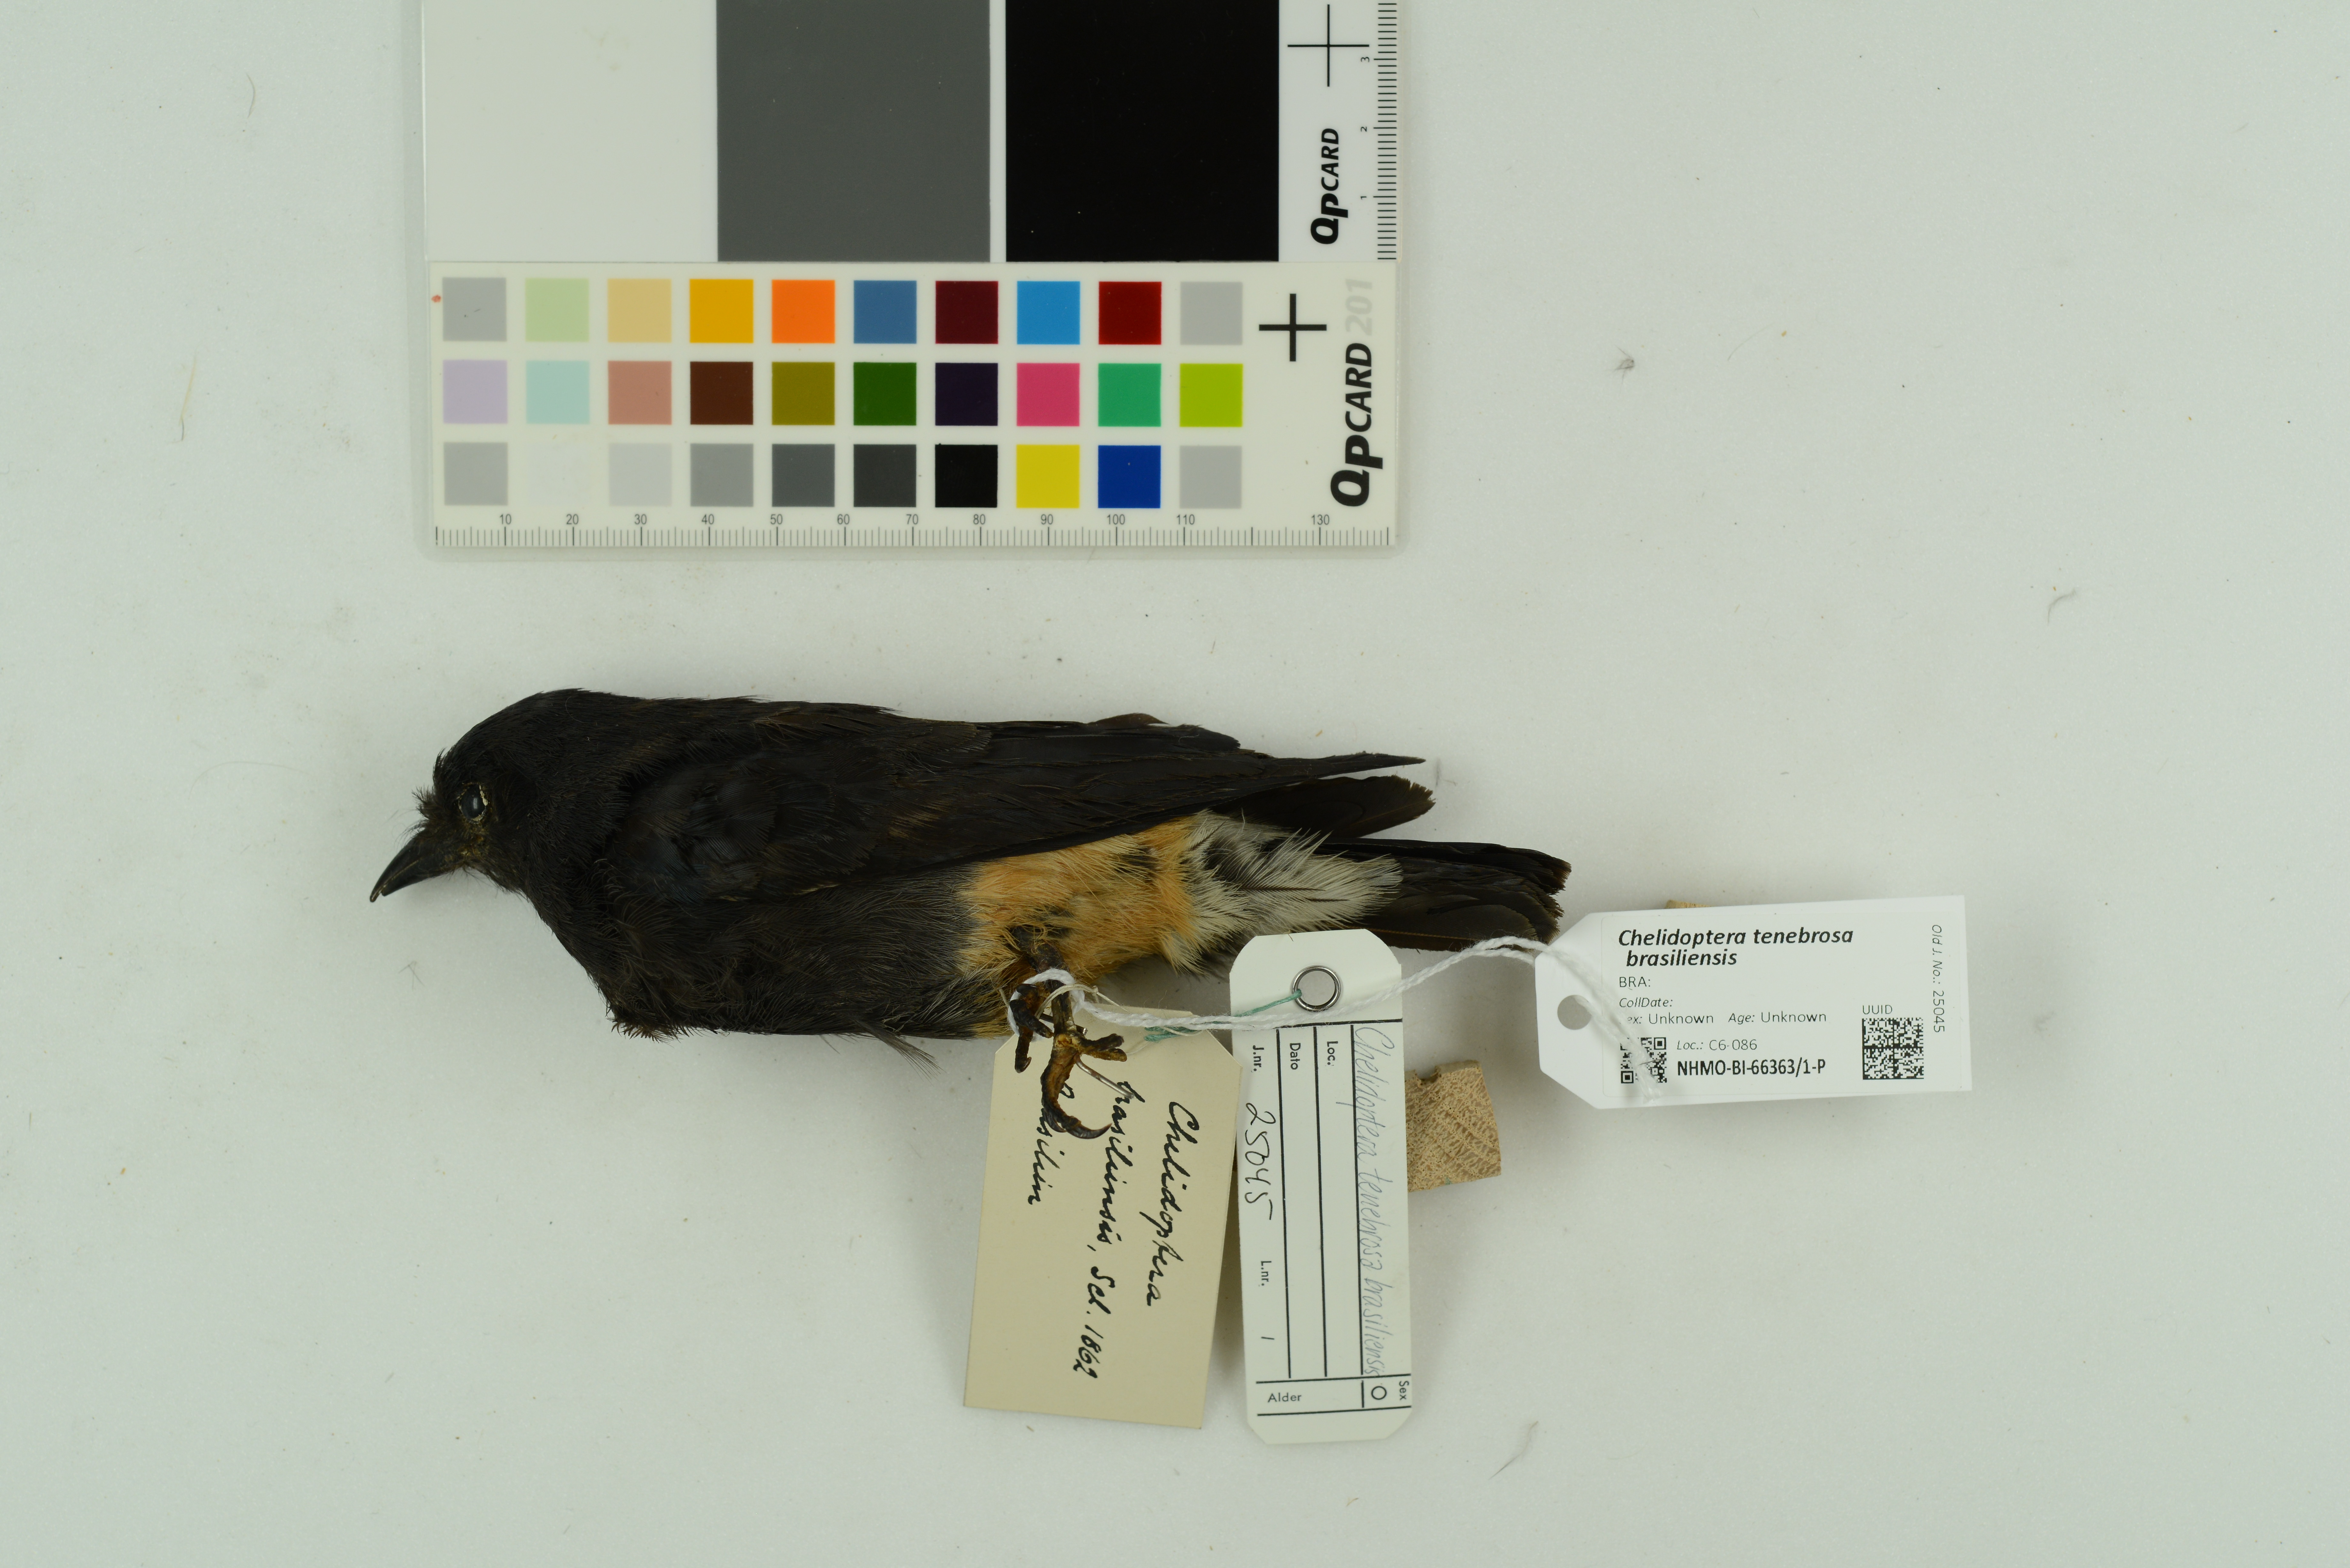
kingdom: Animalia
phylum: Chordata
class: Aves
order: Piciformes
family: Bucconidae
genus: Chelidoptera
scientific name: Chelidoptera tenebrosa
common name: Swallow-winged puffbird
